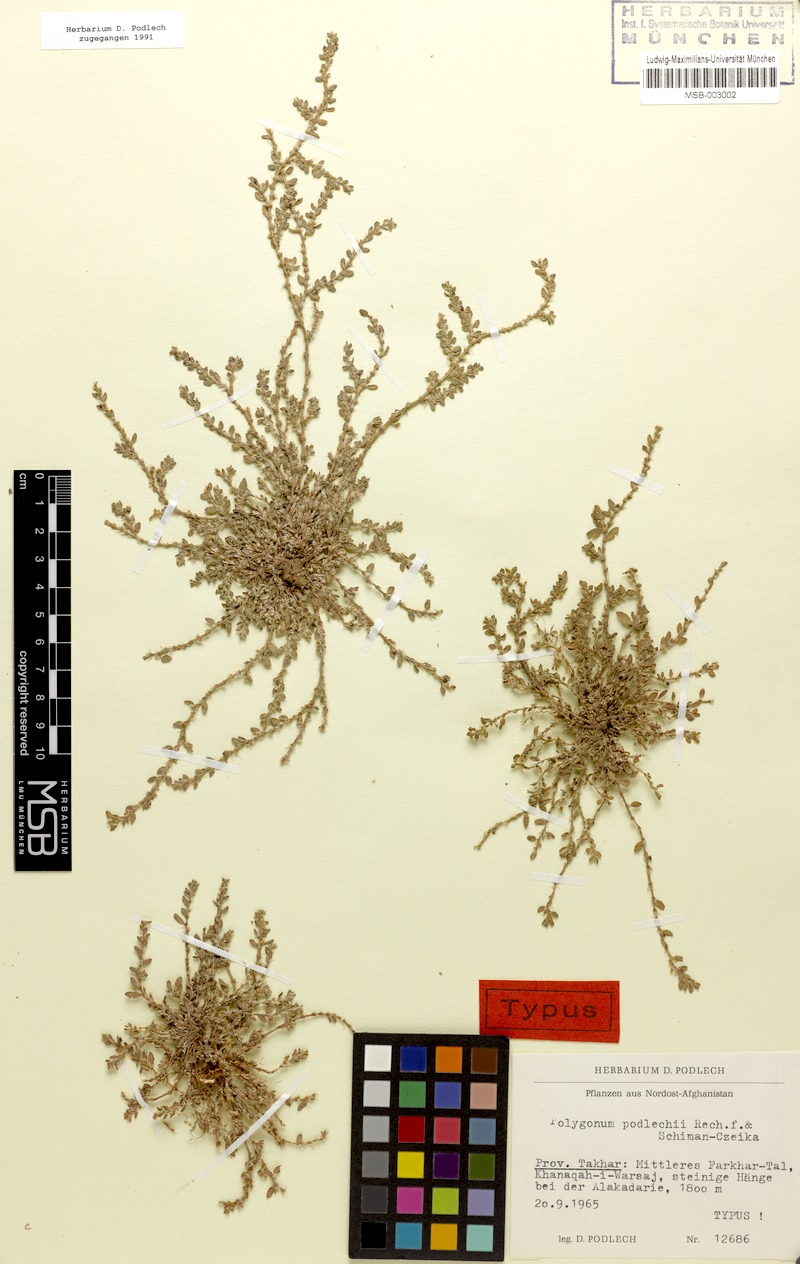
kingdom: Plantae
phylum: Tracheophyta
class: Magnoliopsida
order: Caryophyllales
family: Polygonaceae
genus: Polygonum
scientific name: Polygonum podlechii
